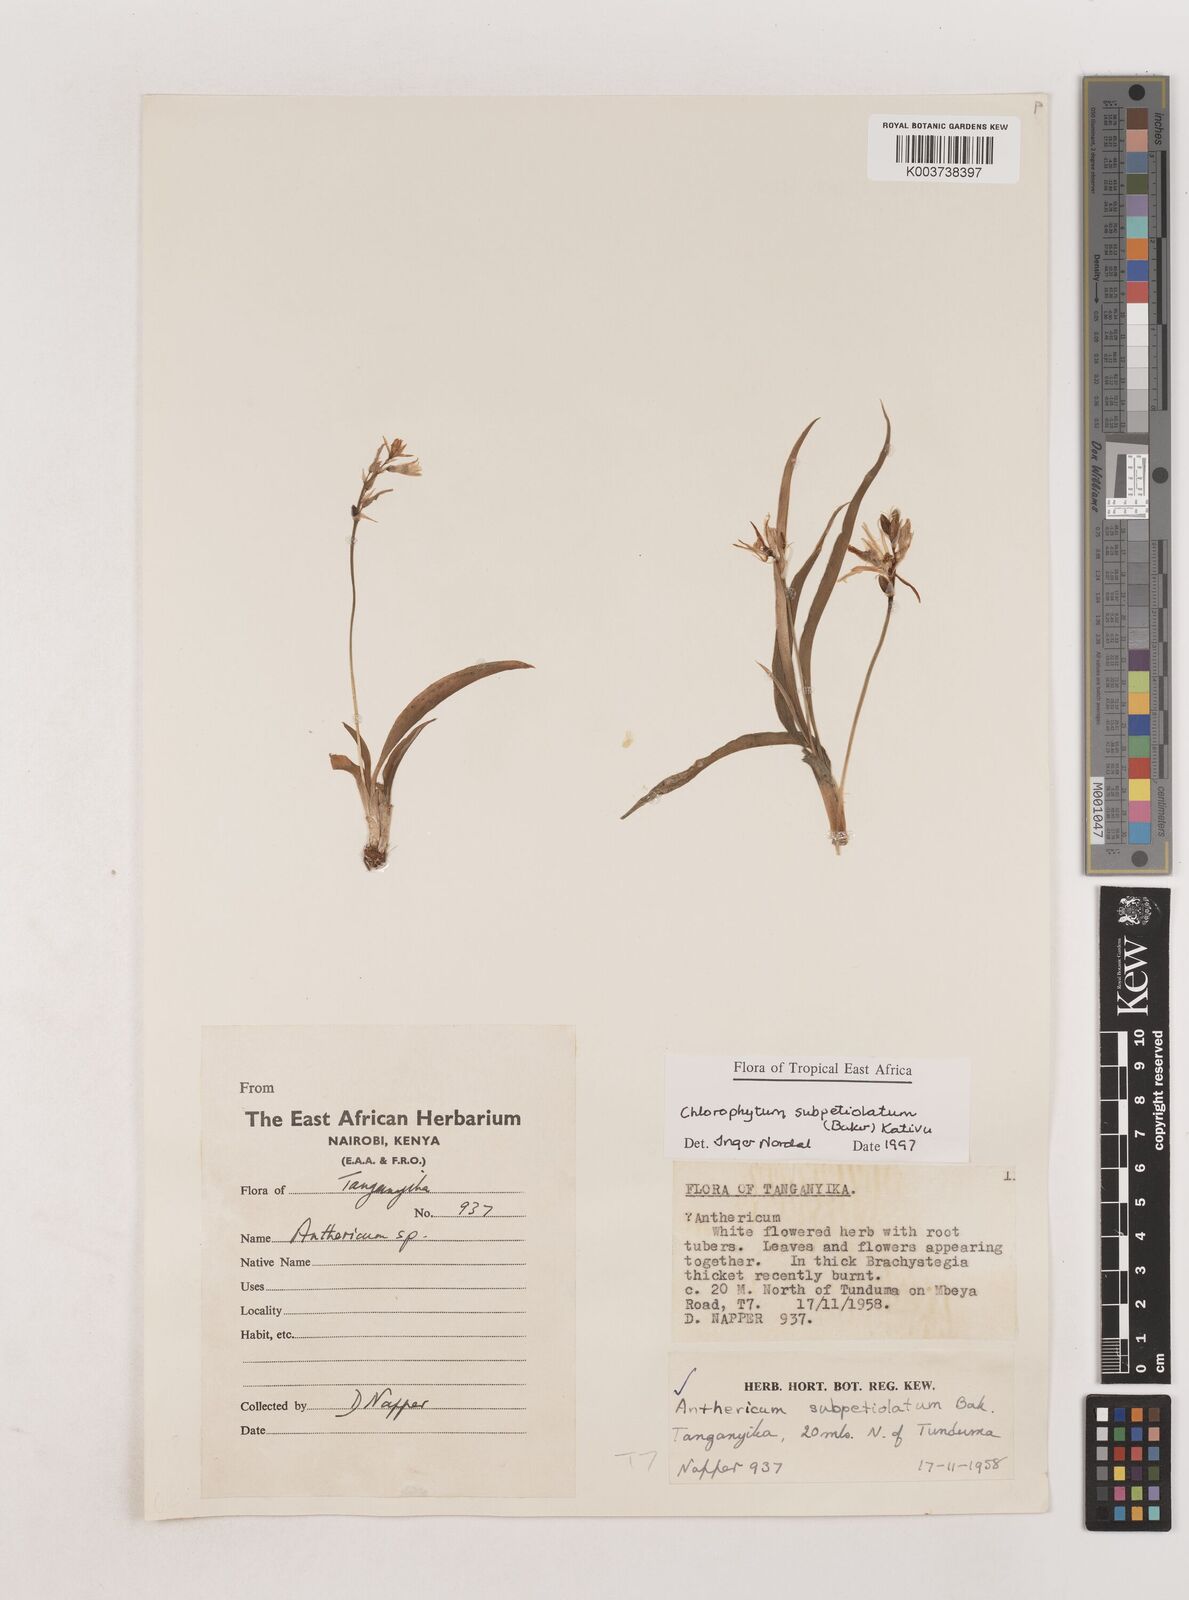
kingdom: Plantae
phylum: Tracheophyta
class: Liliopsida
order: Asparagales
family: Asparagaceae
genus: Chlorophytum
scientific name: Chlorophytum subpetiolatum
